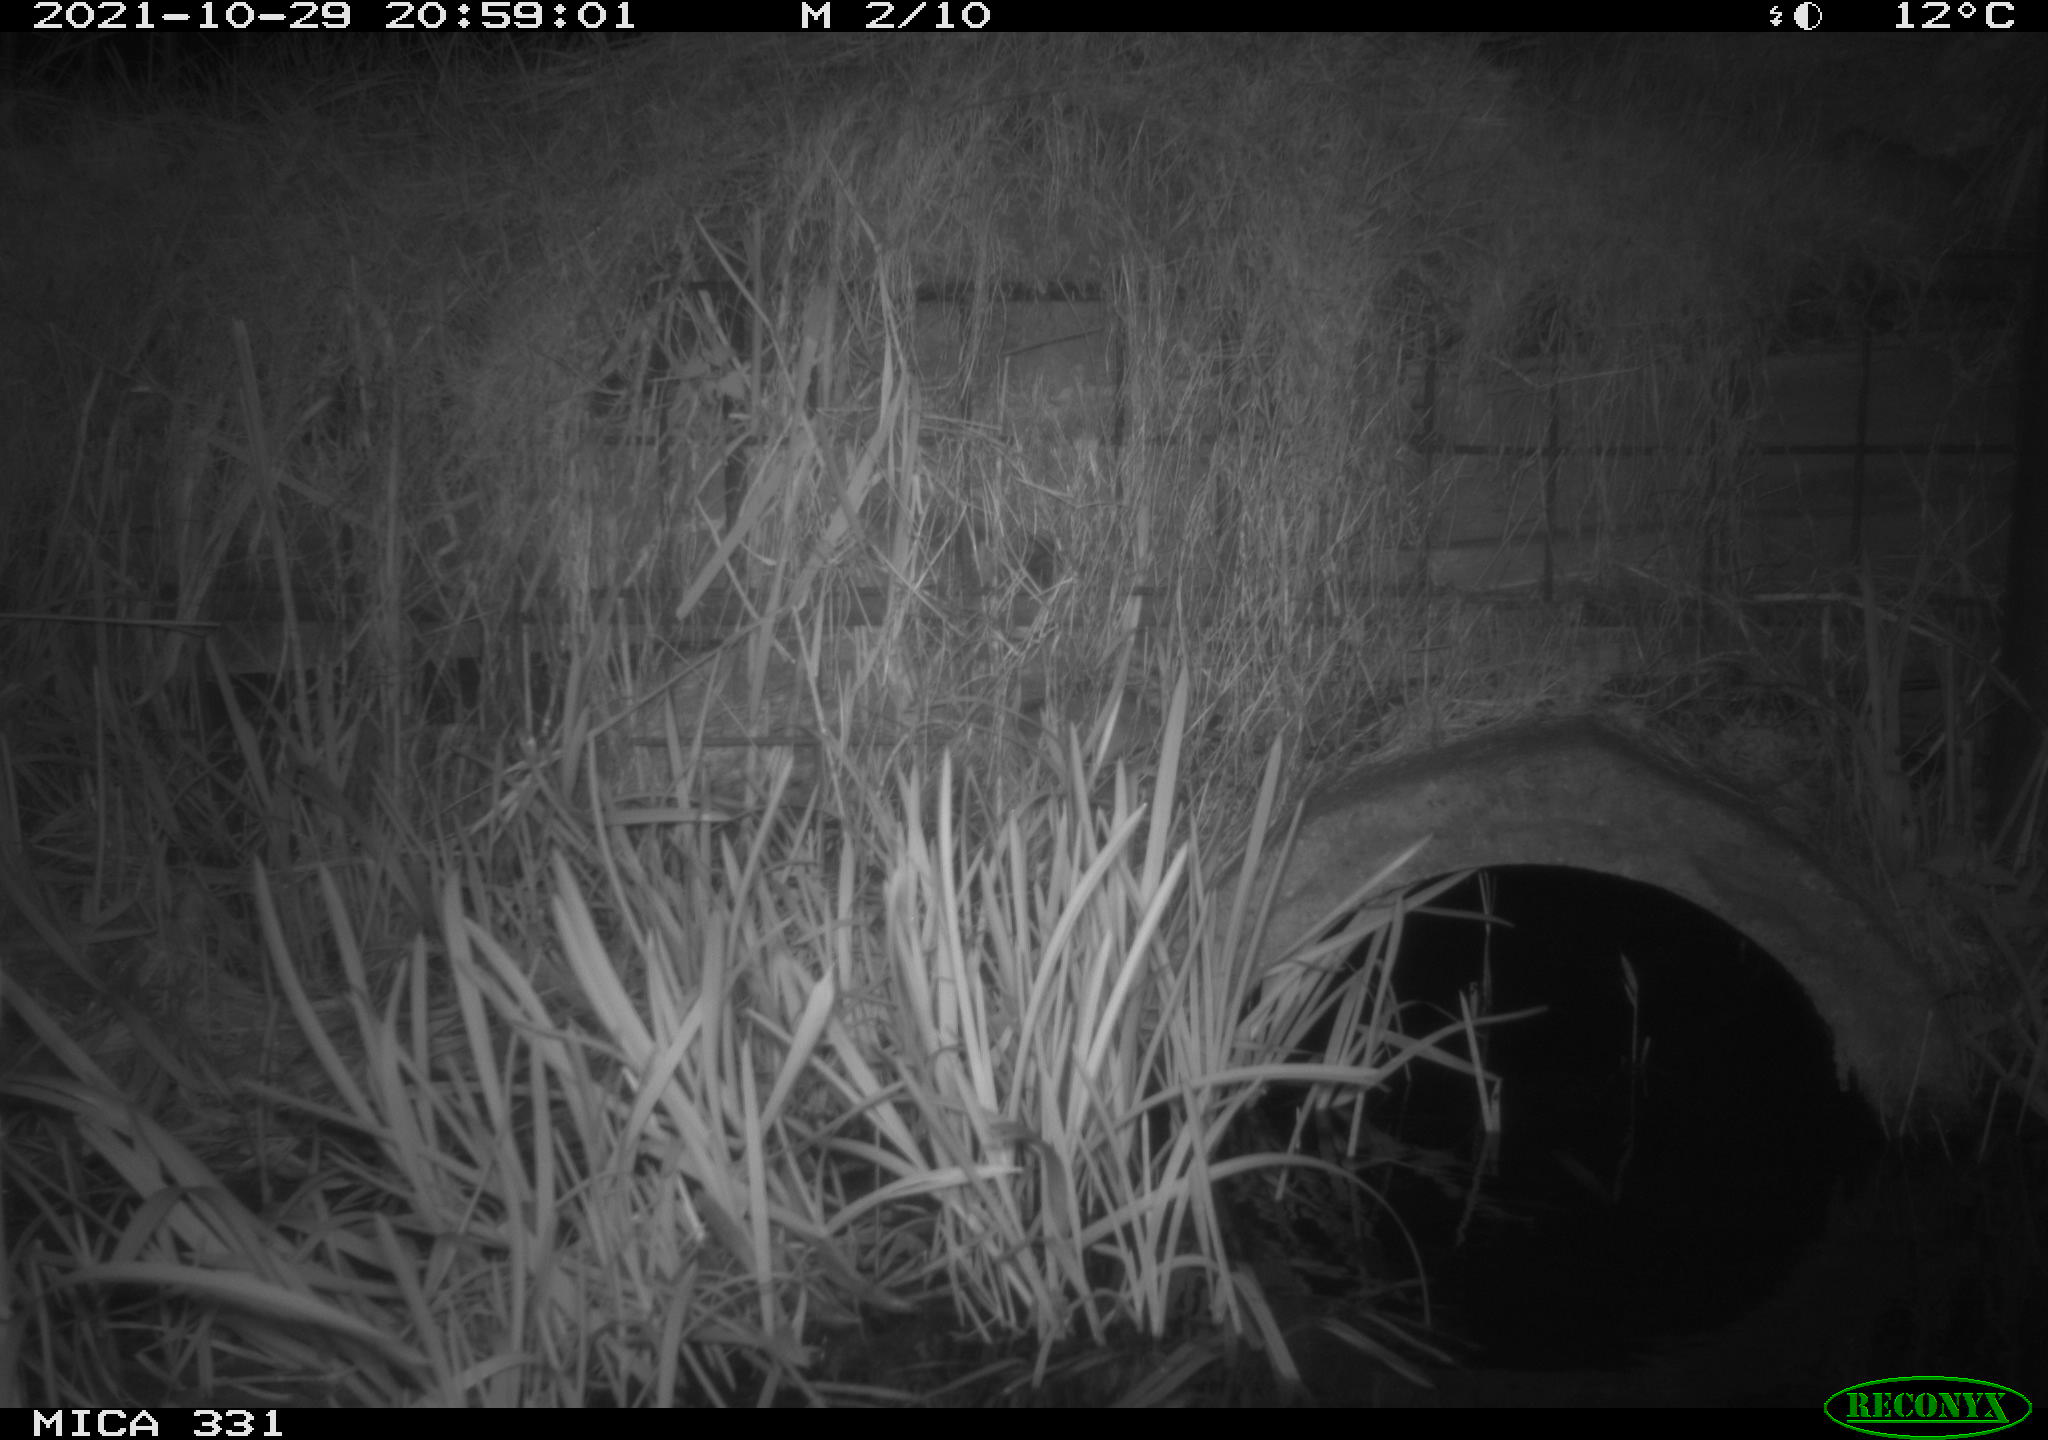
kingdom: Animalia
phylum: Chordata
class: Mammalia
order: Rodentia
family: Muridae
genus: Rattus
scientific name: Rattus norvegicus
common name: Brown rat
